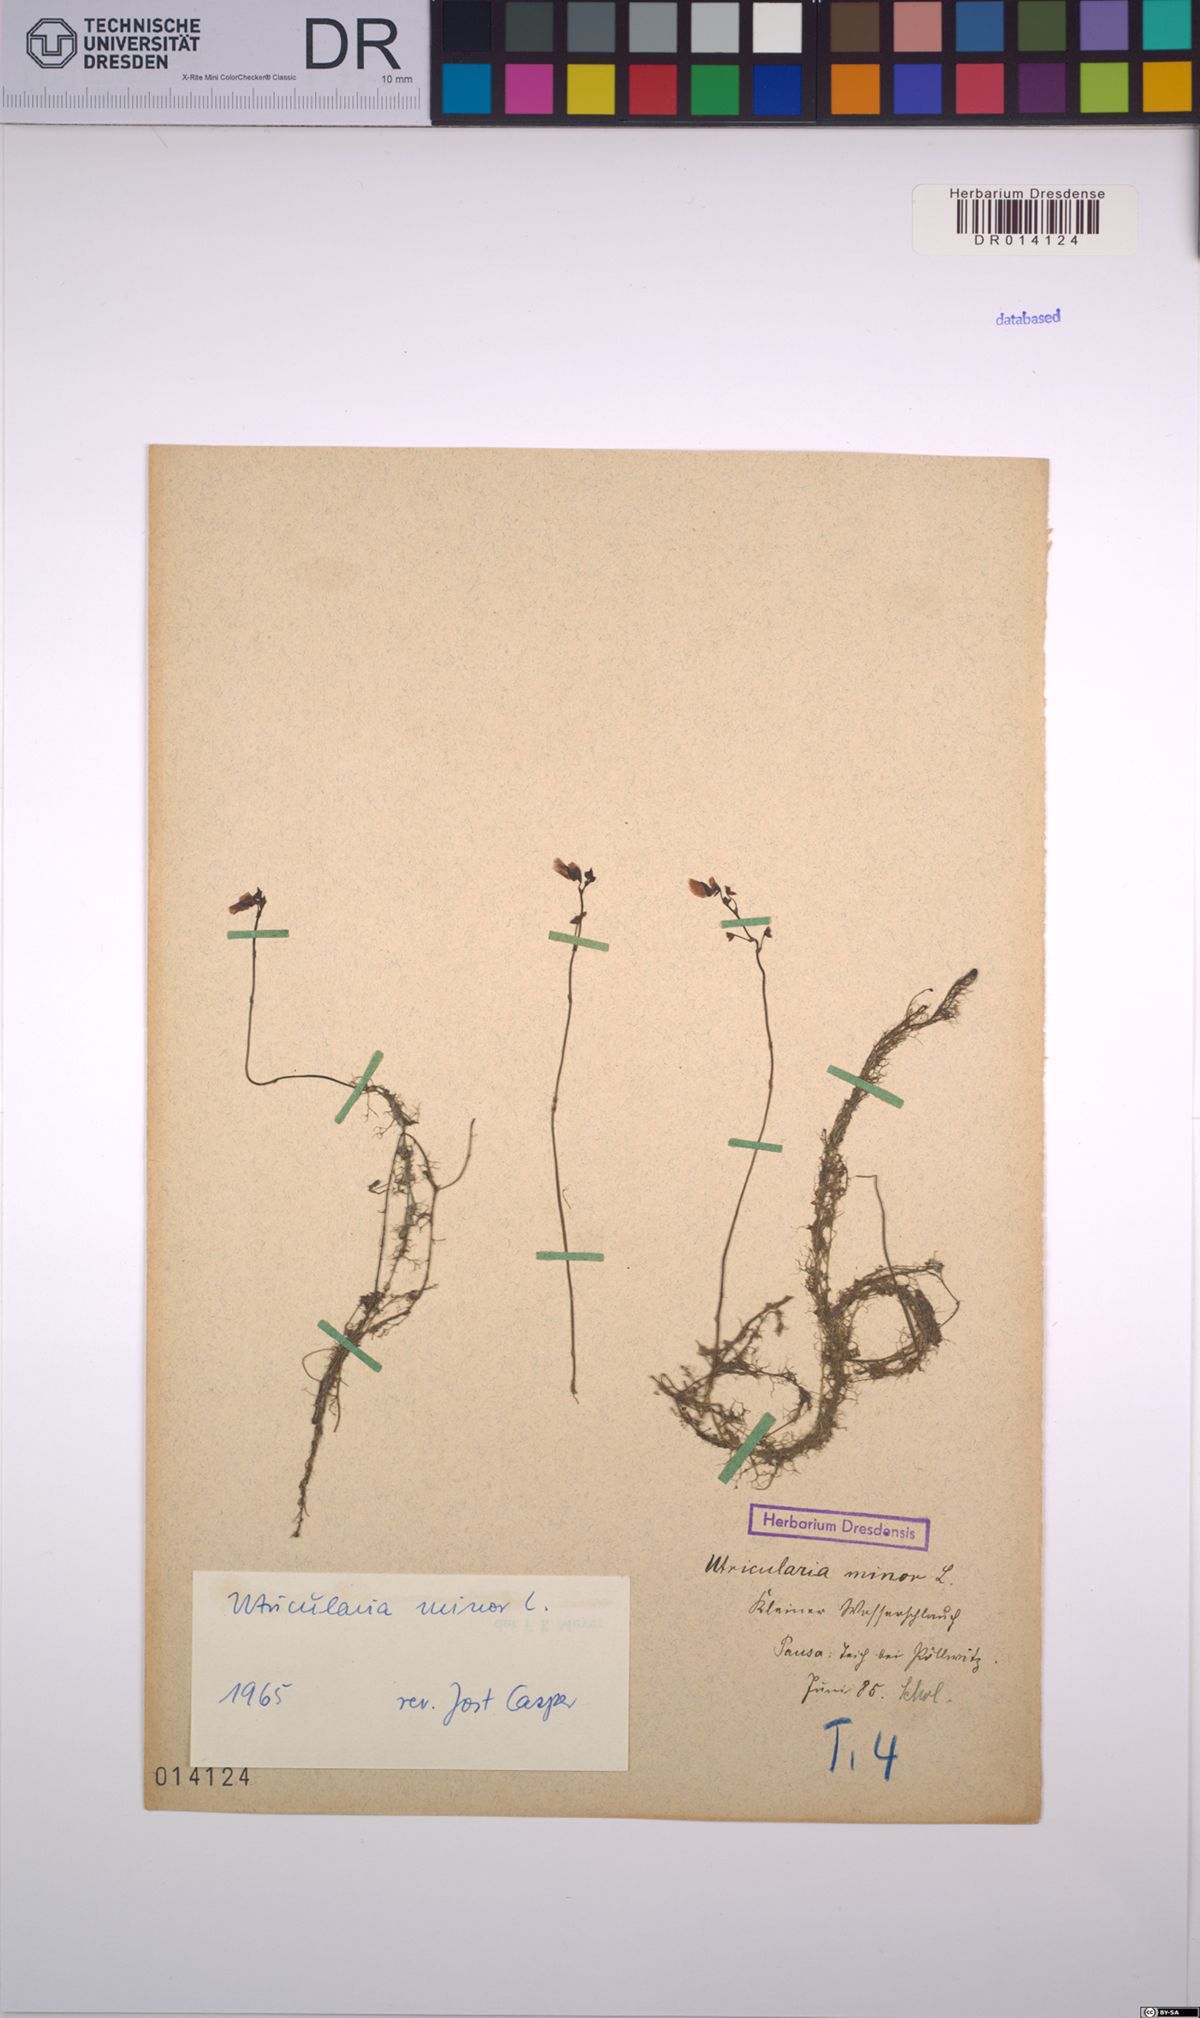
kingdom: Plantae
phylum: Tracheophyta
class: Magnoliopsida
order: Lamiales
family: Lentibulariaceae
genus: Utricularia
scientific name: Utricularia minor
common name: Lesser bladderwort
